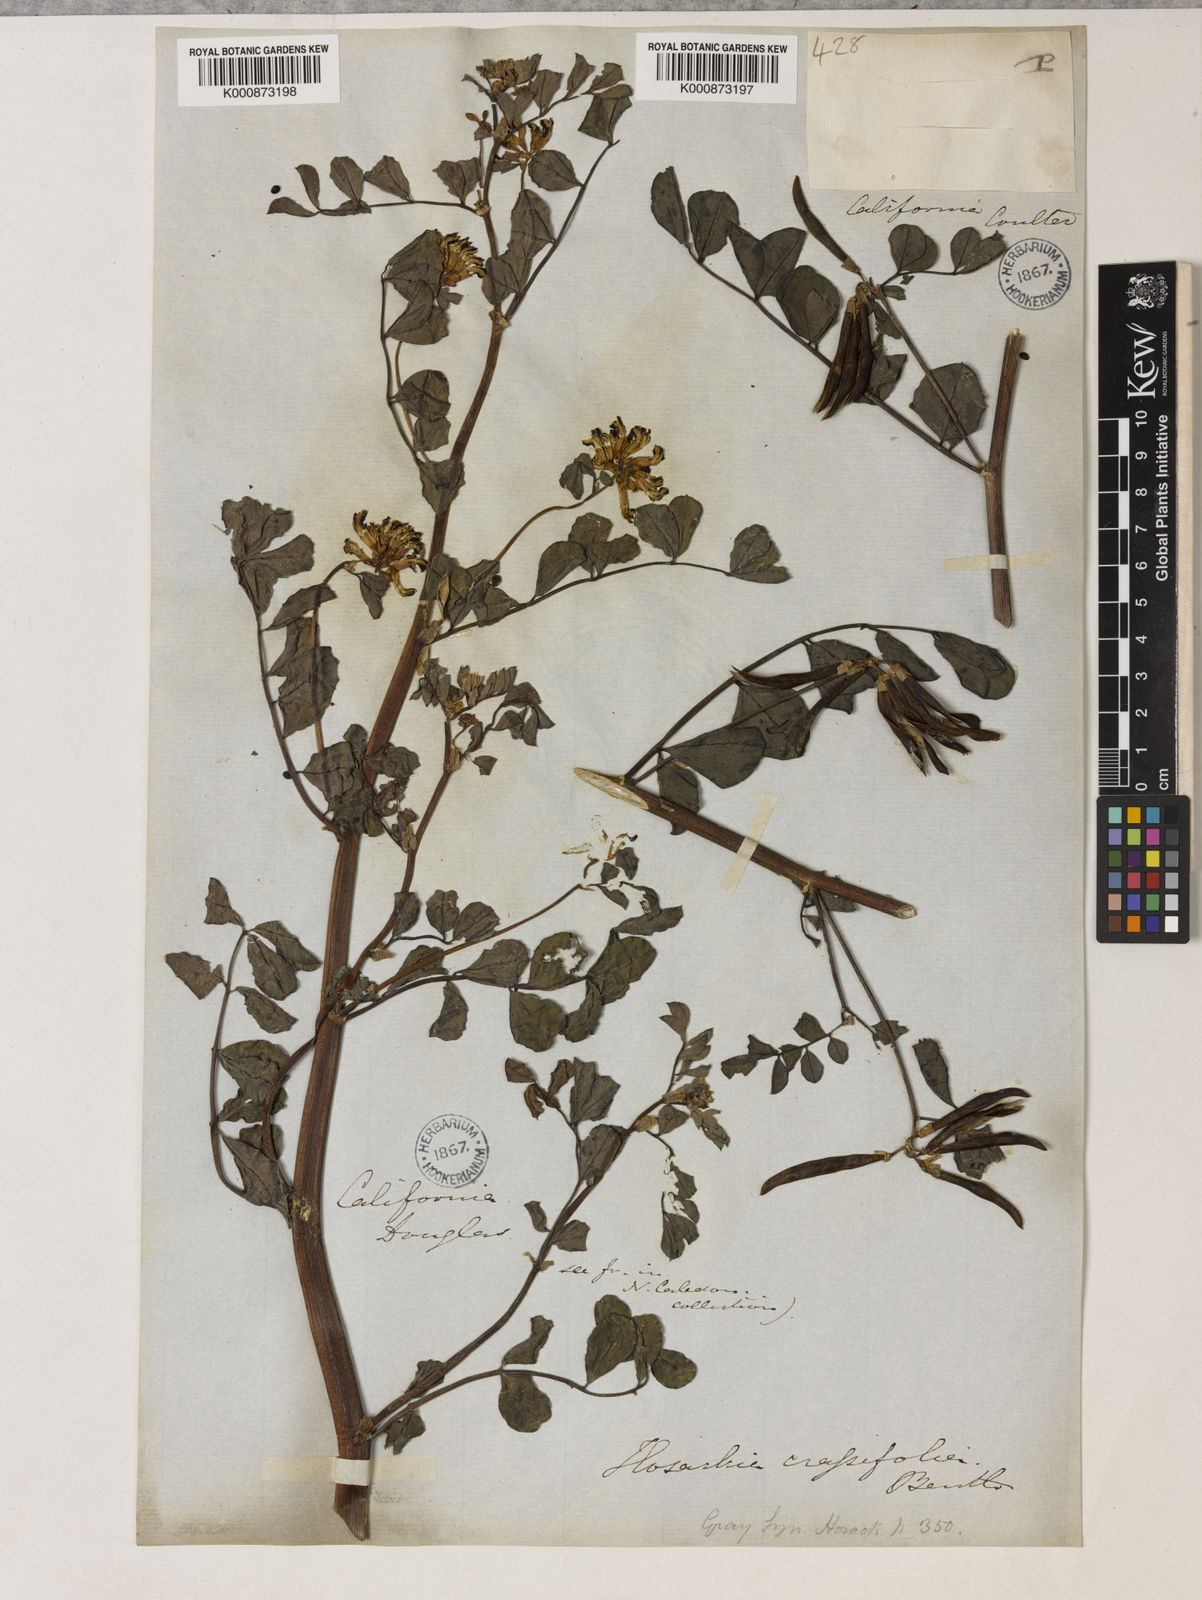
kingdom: Plantae
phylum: Tracheophyta
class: Magnoliopsida
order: Fabales
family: Fabaceae
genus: Hosackia
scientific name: Hosackia crassifolia
